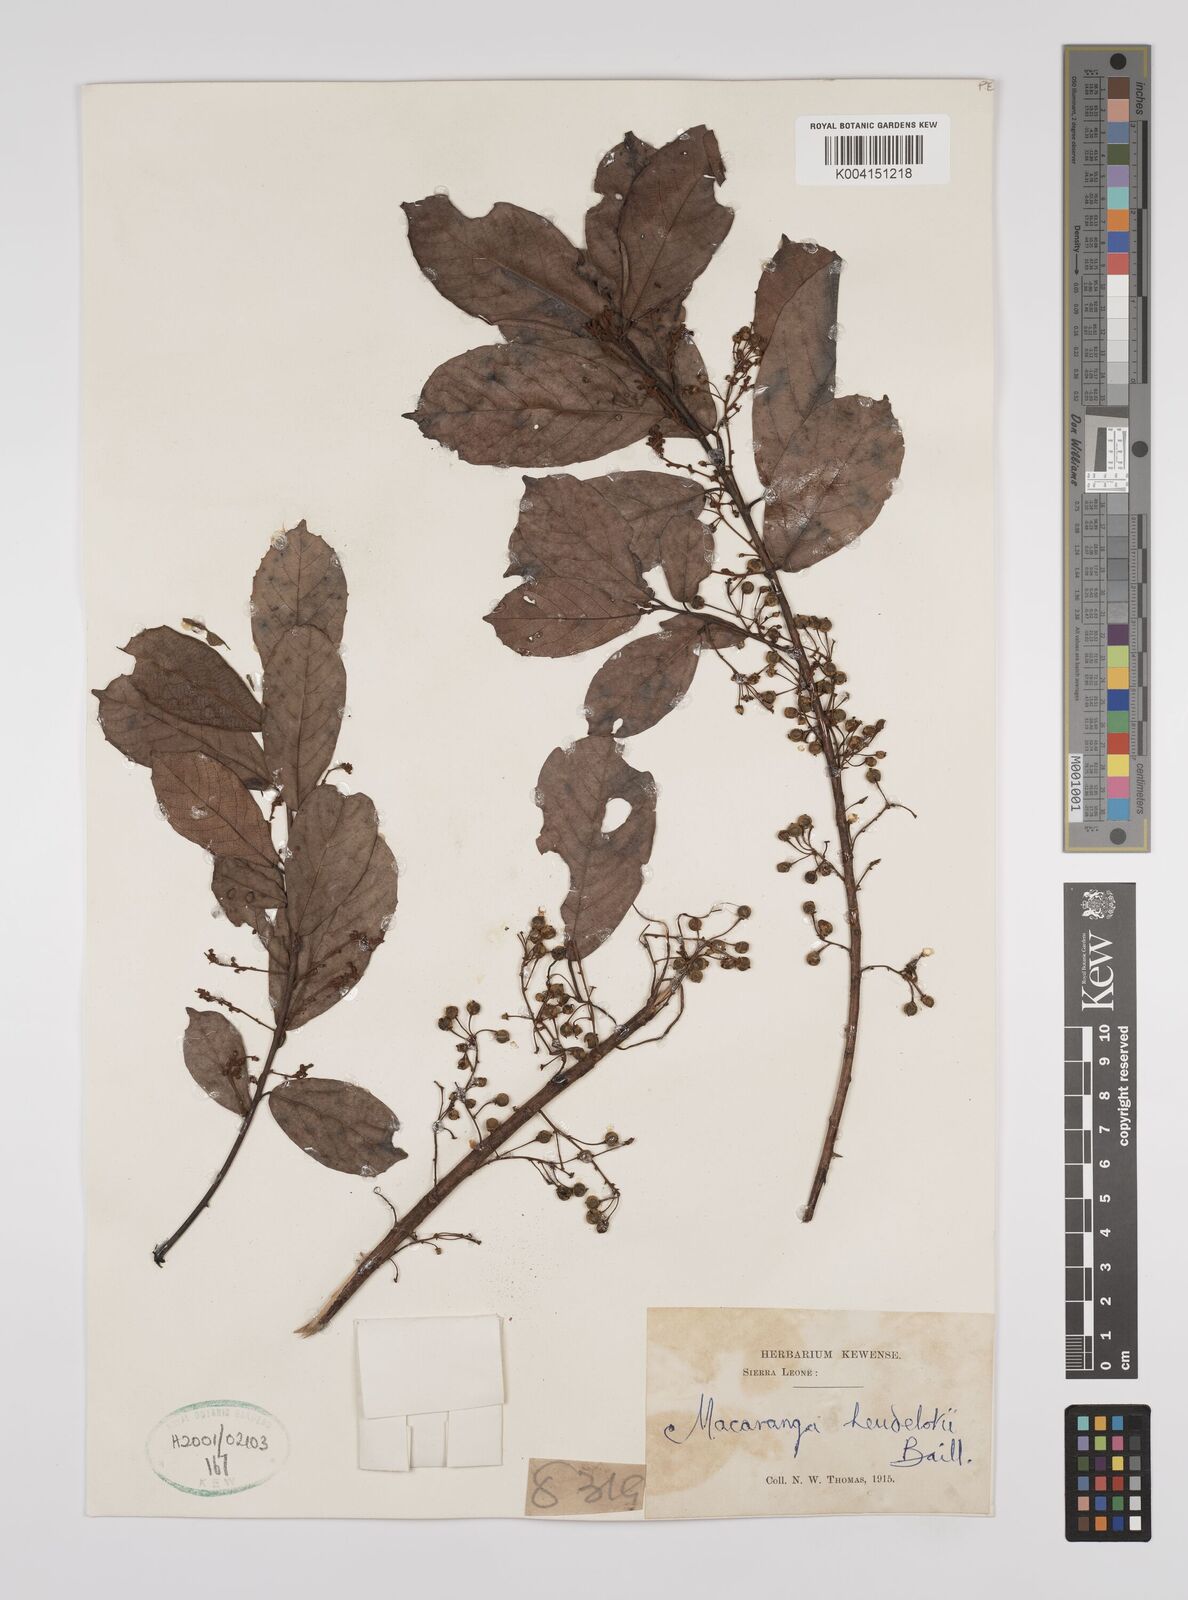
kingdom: Plantae
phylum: Tracheophyta
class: Magnoliopsida
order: Malpighiales
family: Euphorbiaceae
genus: Macaranga
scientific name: Macaranga heudelotii
